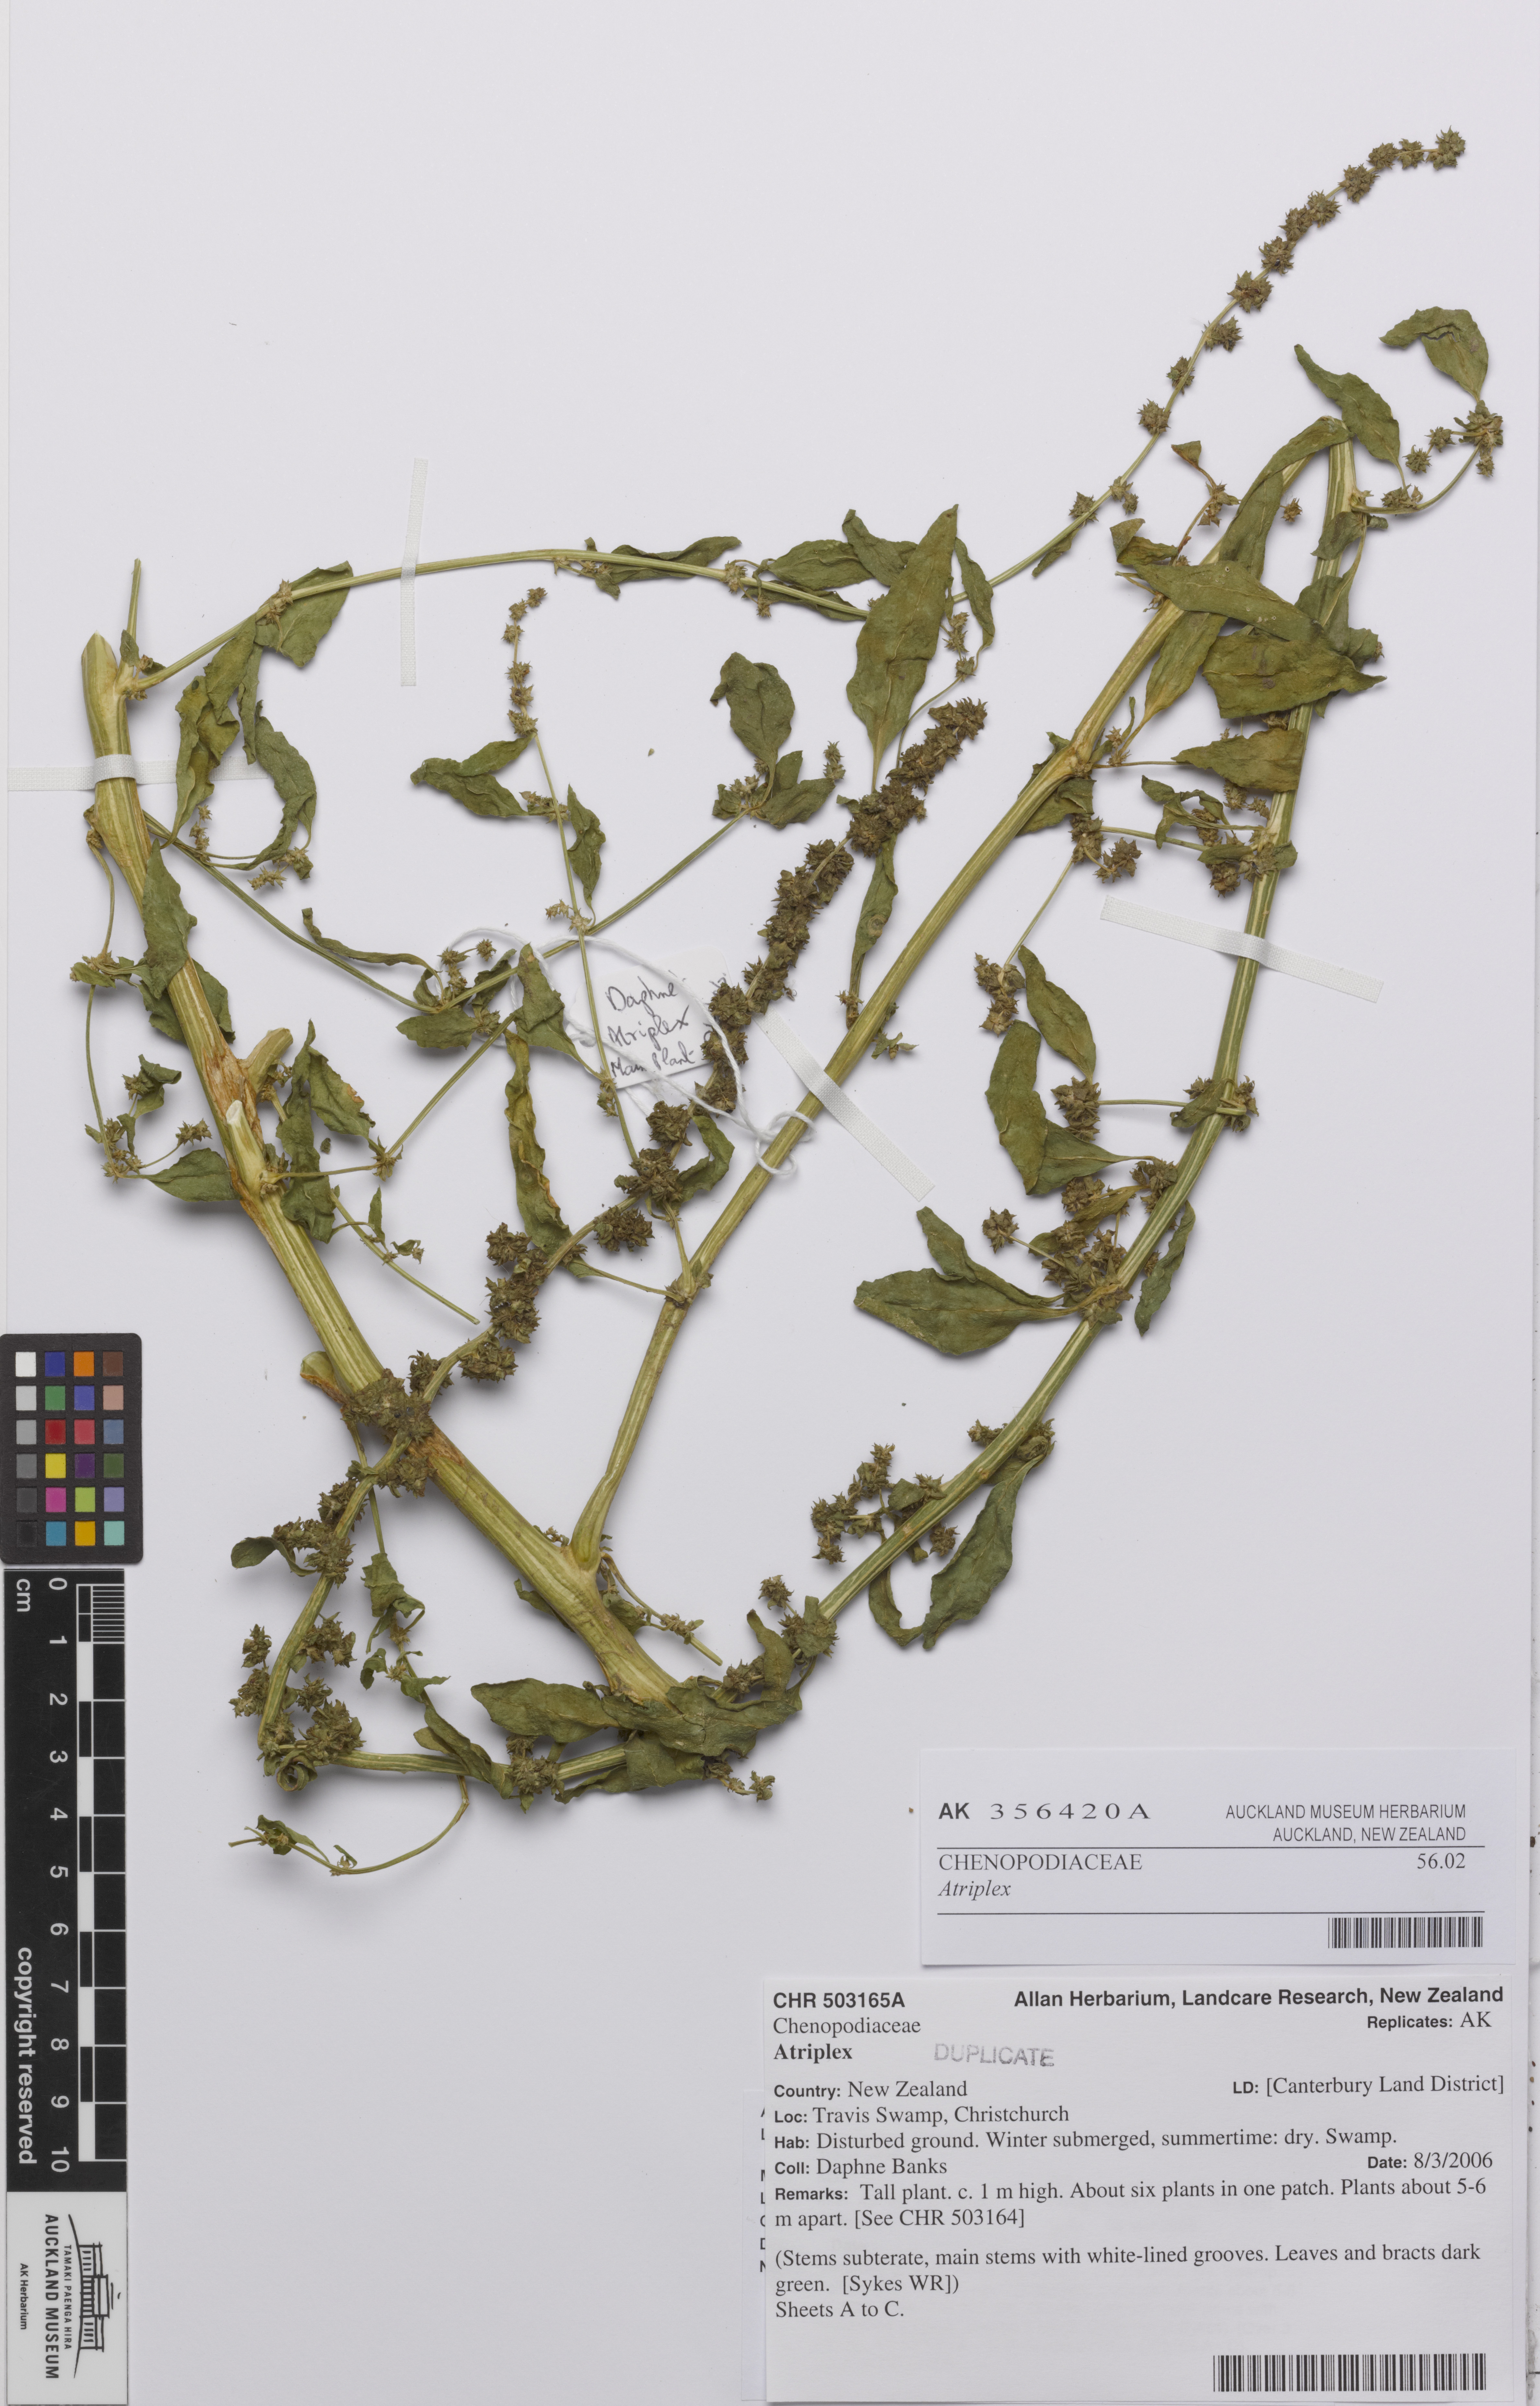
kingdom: Plantae
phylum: Tracheophyta
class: Magnoliopsida
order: Caryophyllales
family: Amaranthaceae
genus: Atriplex
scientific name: Atriplex
